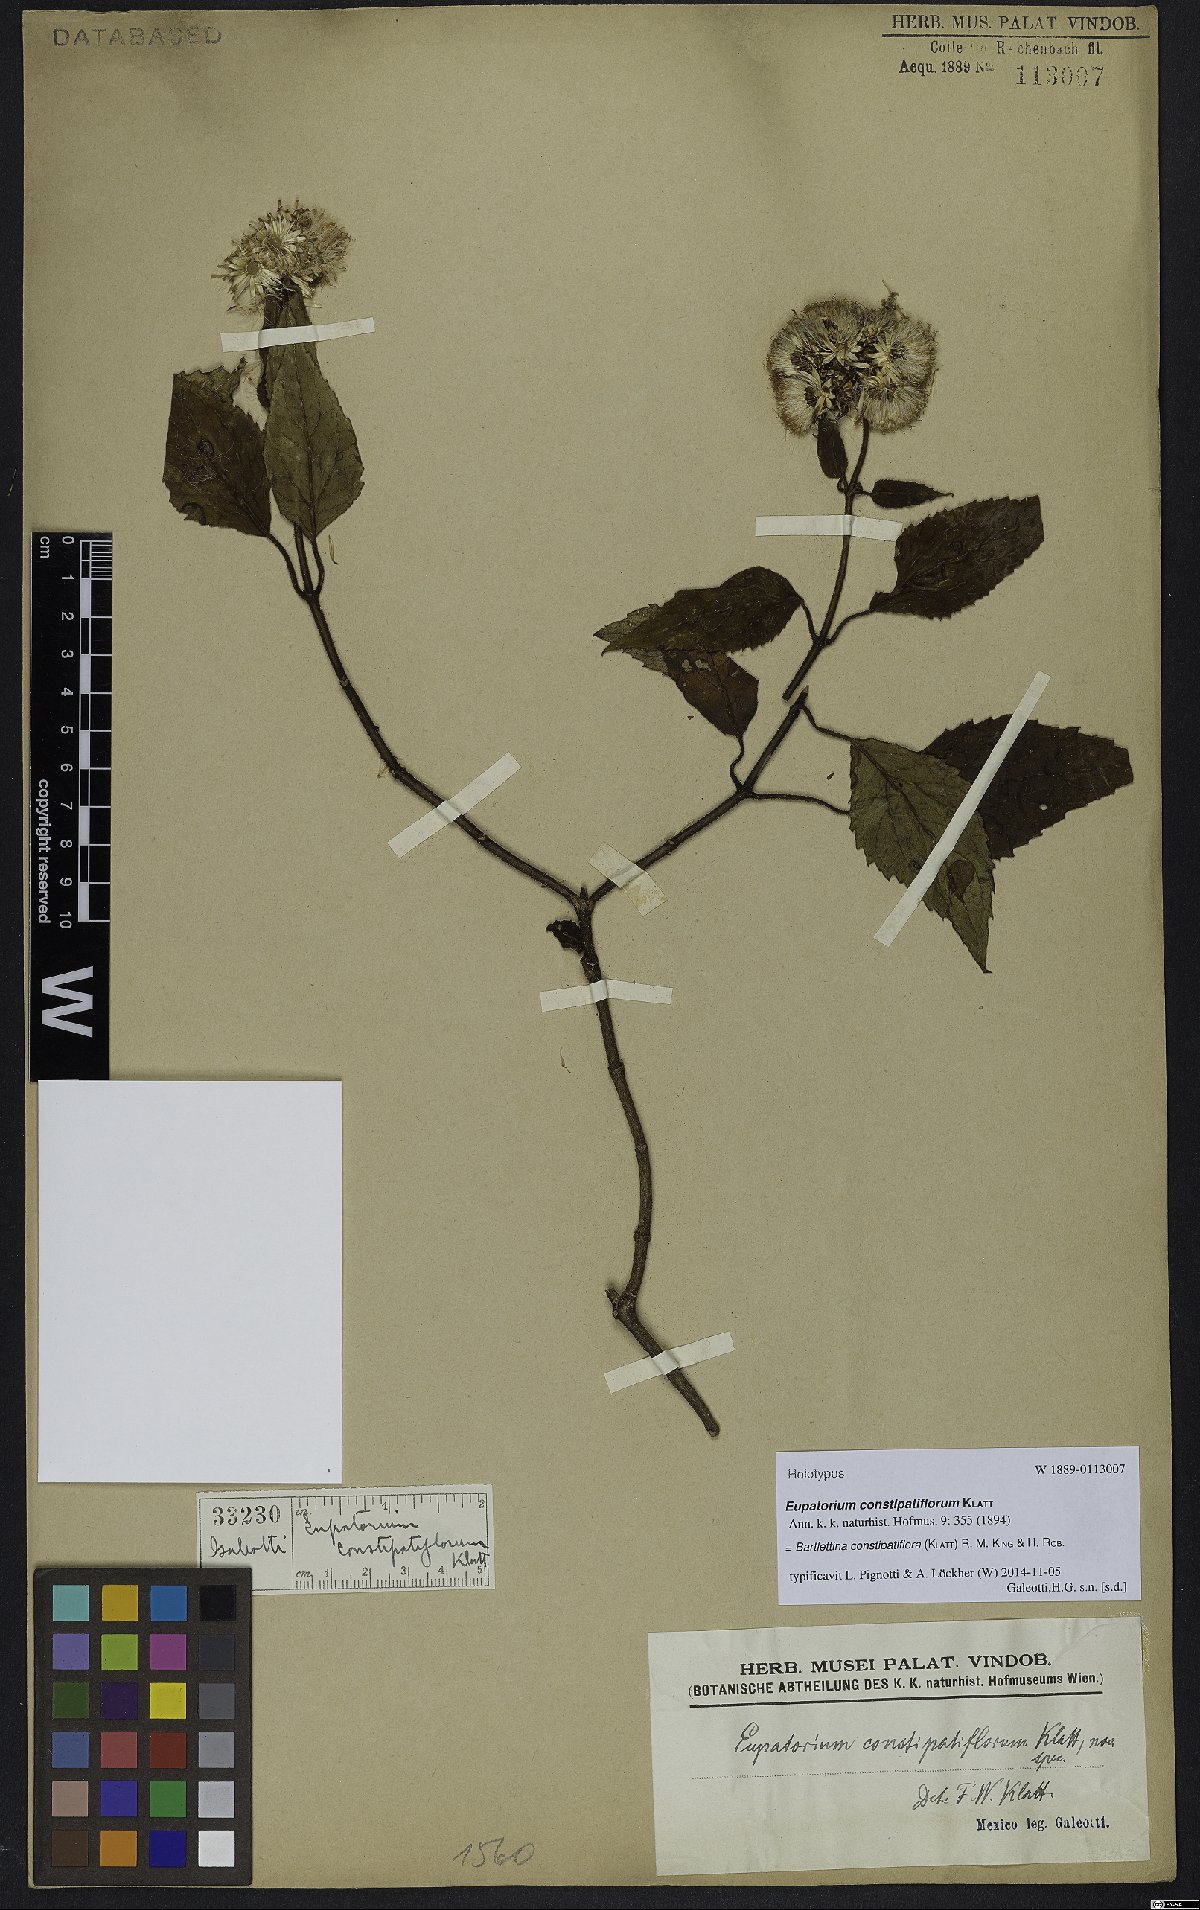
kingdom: Plantae
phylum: Tracheophyta
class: Magnoliopsida
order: Asterales
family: Asteraceae
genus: Bartlettina
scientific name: Bartlettina constipatiflora
